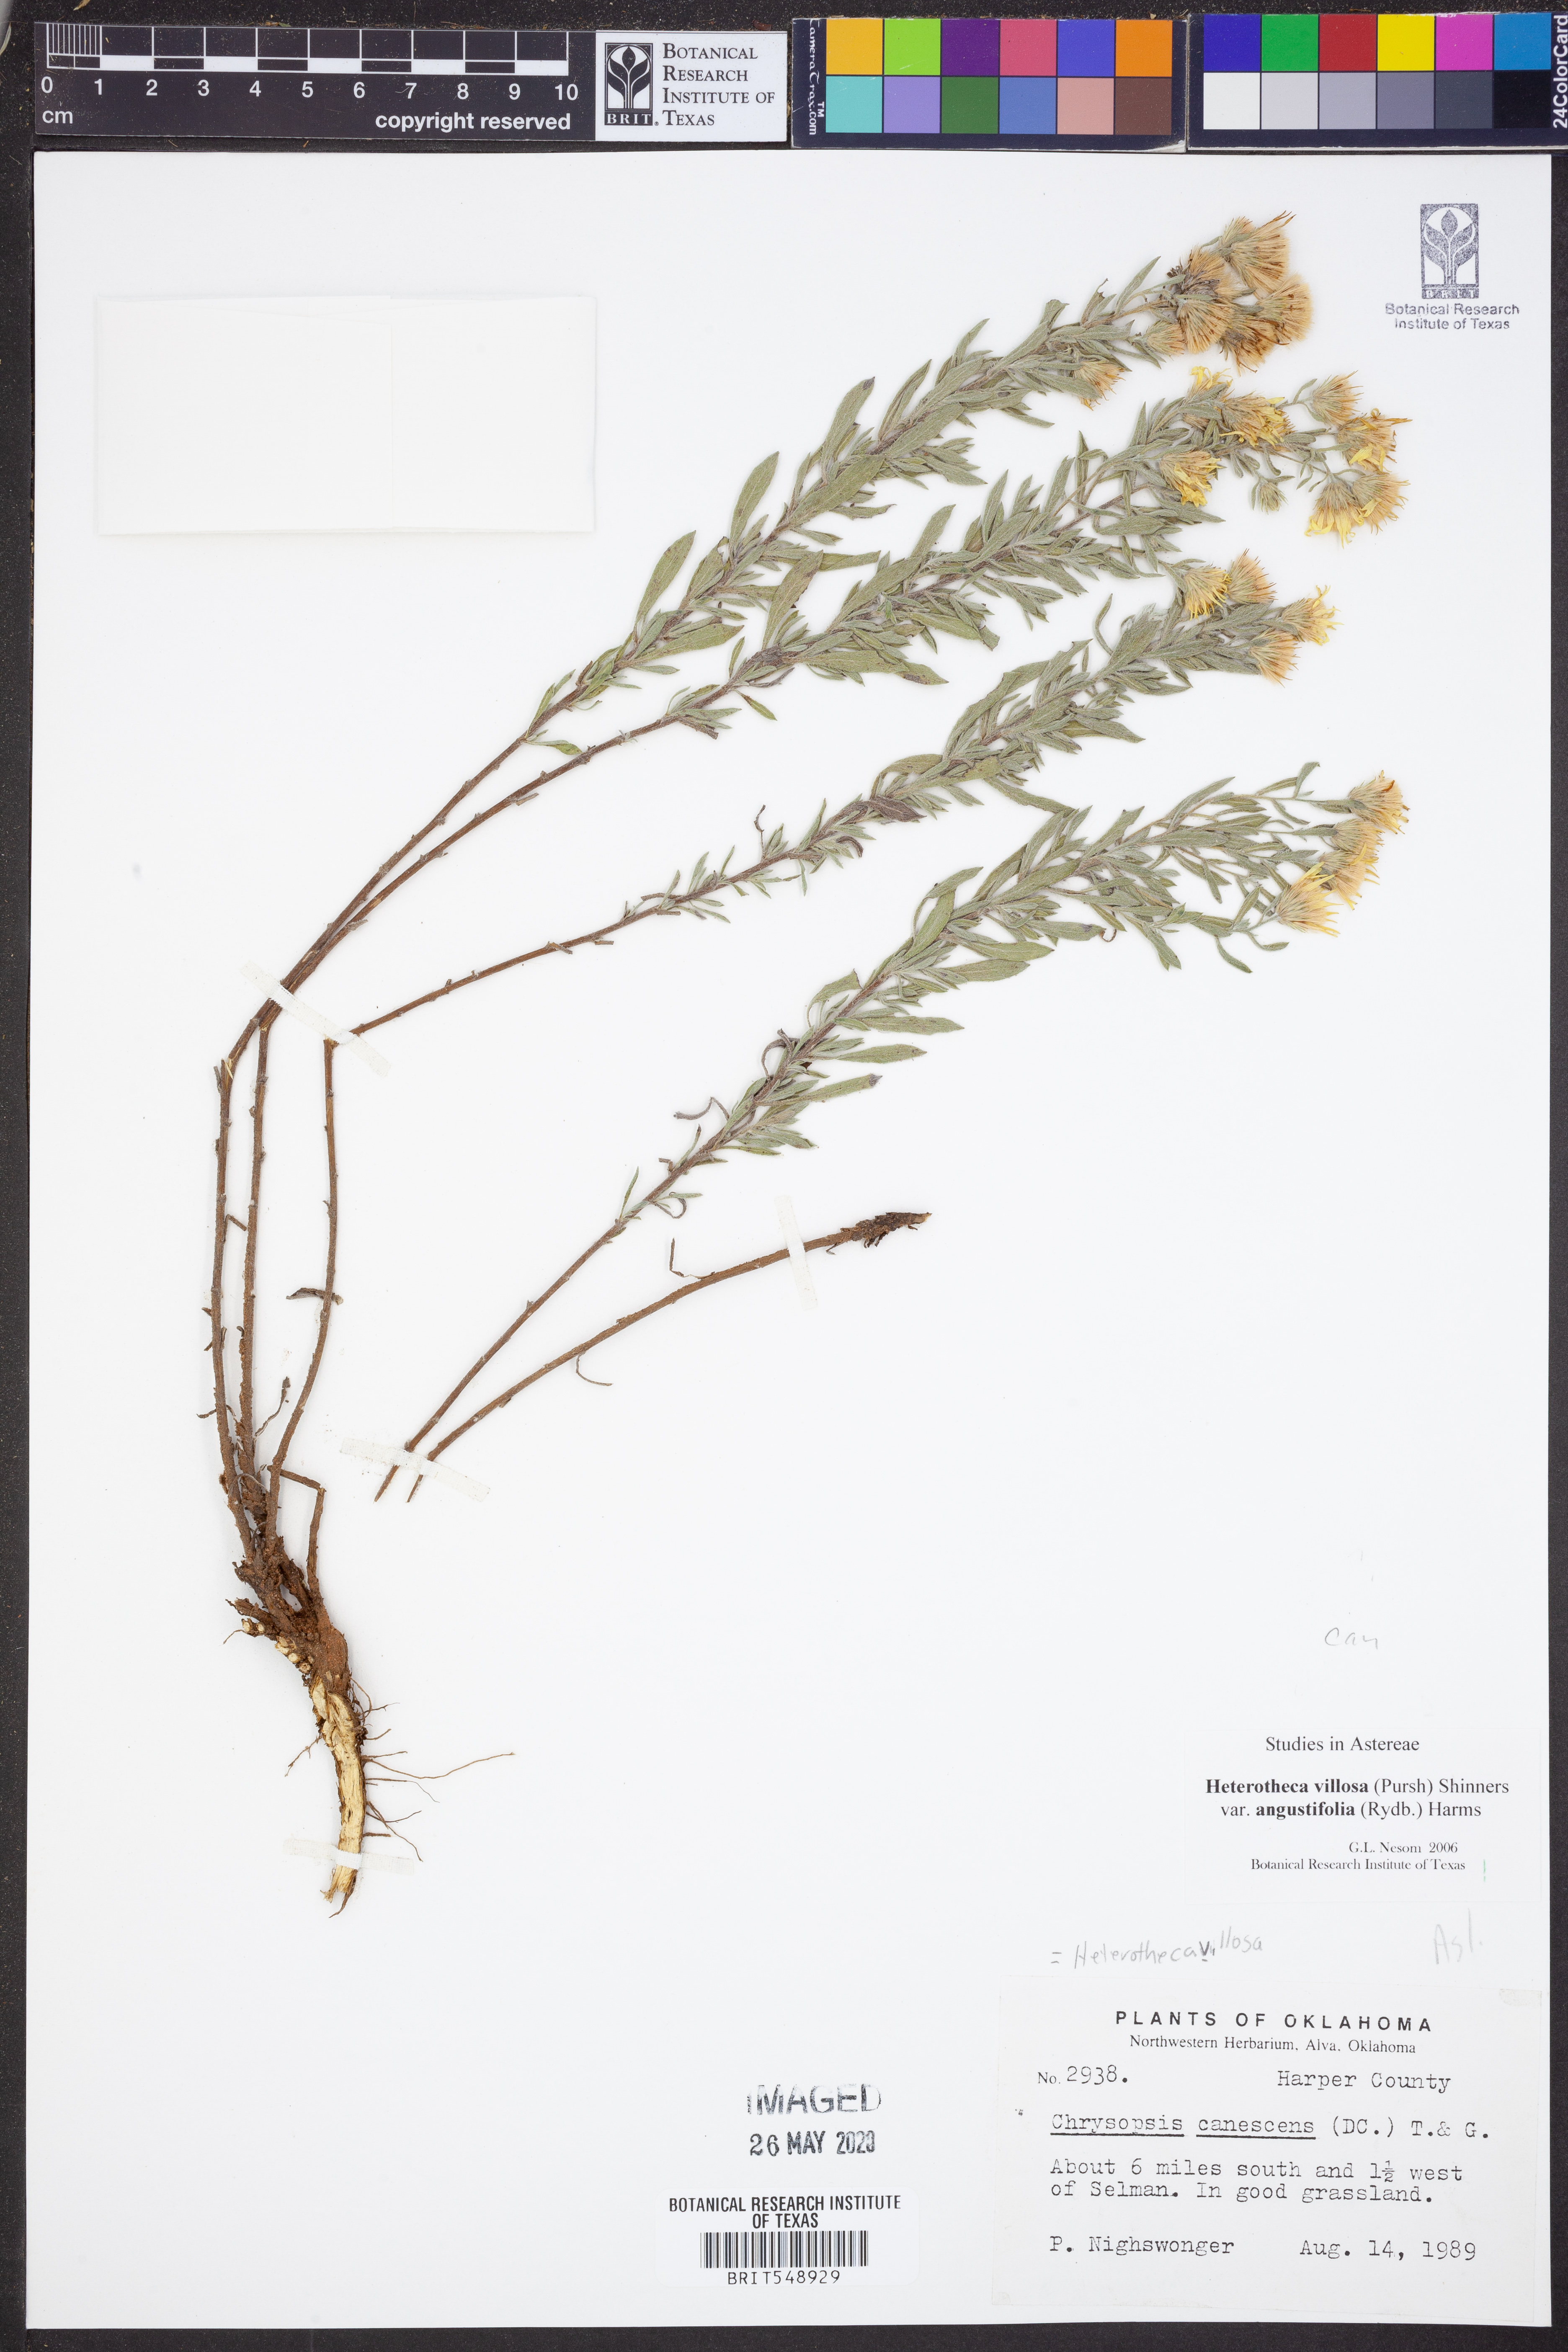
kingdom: Plantae
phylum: Tracheophyta
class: Magnoliopsida
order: Asterales
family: Asteraceae
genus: Heterotheca
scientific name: Heterotheca angustifolia
